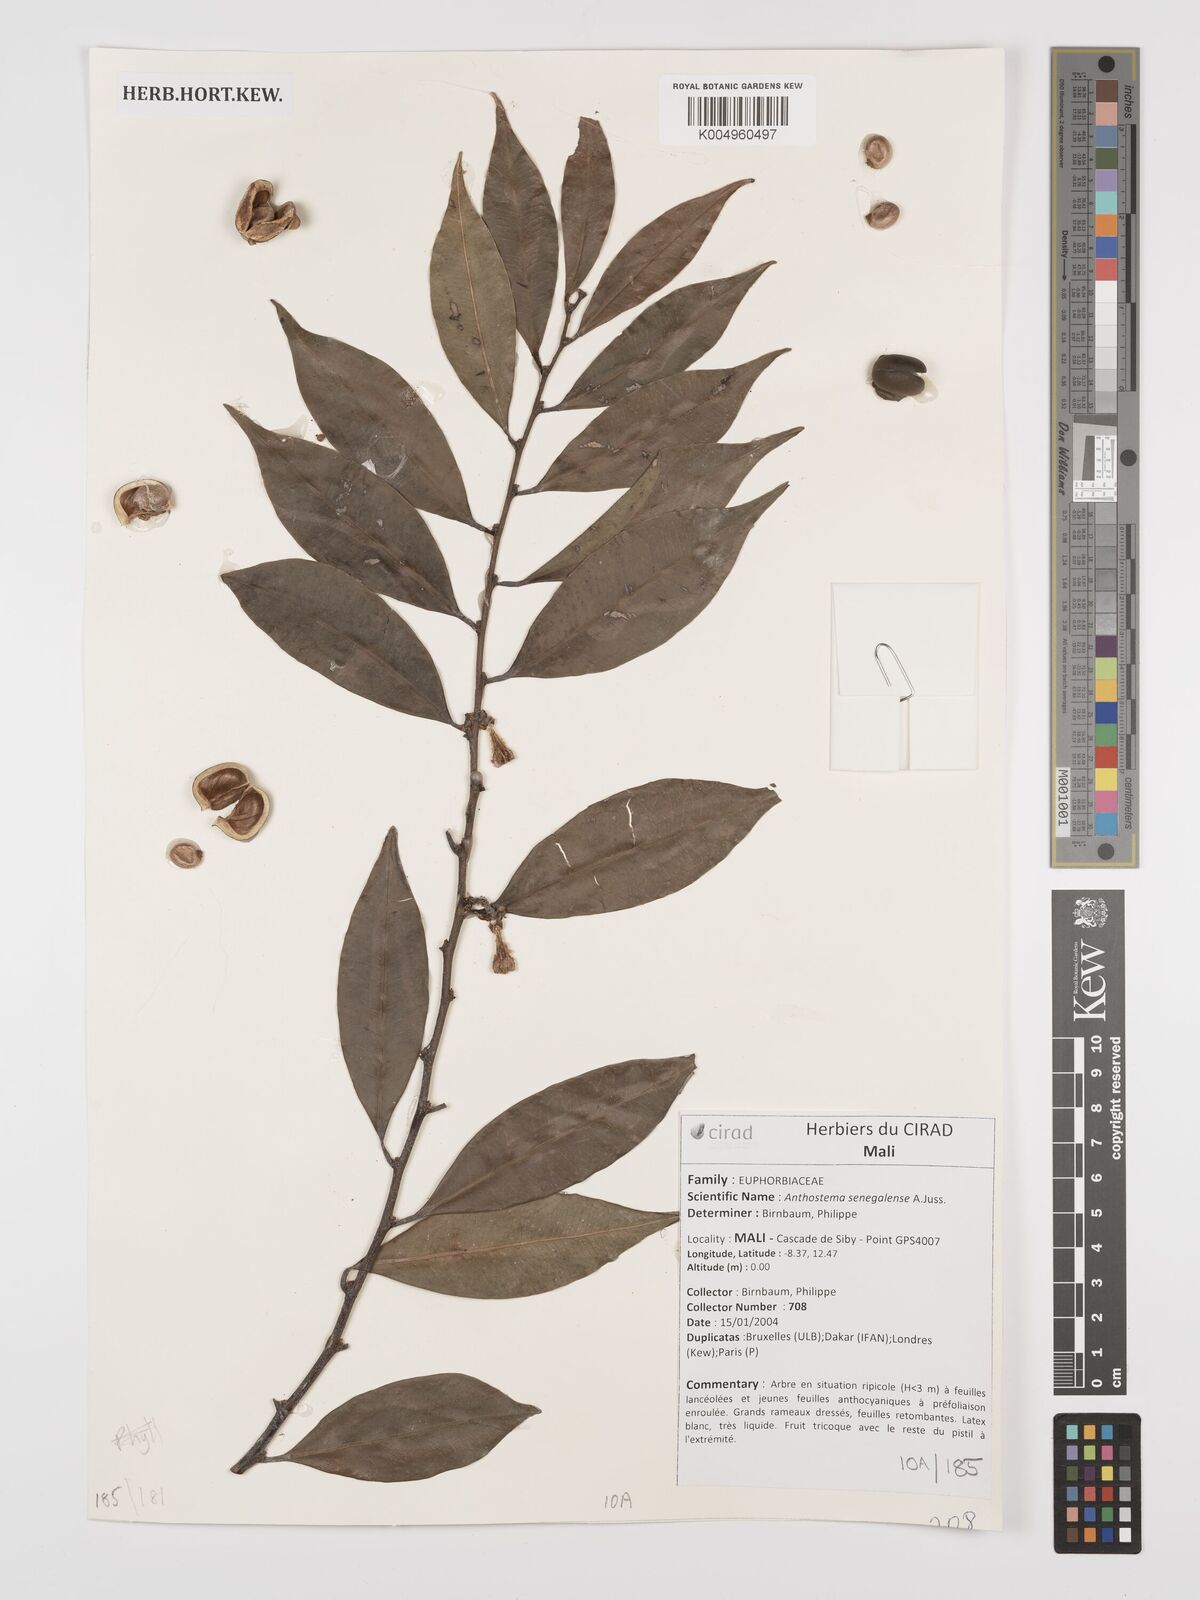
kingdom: Plantae
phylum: Tracheophyta
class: Magnoliopsida
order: Malpighiales
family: Euphorbiaceae
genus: Anthostema
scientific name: Anthostema senegalense
